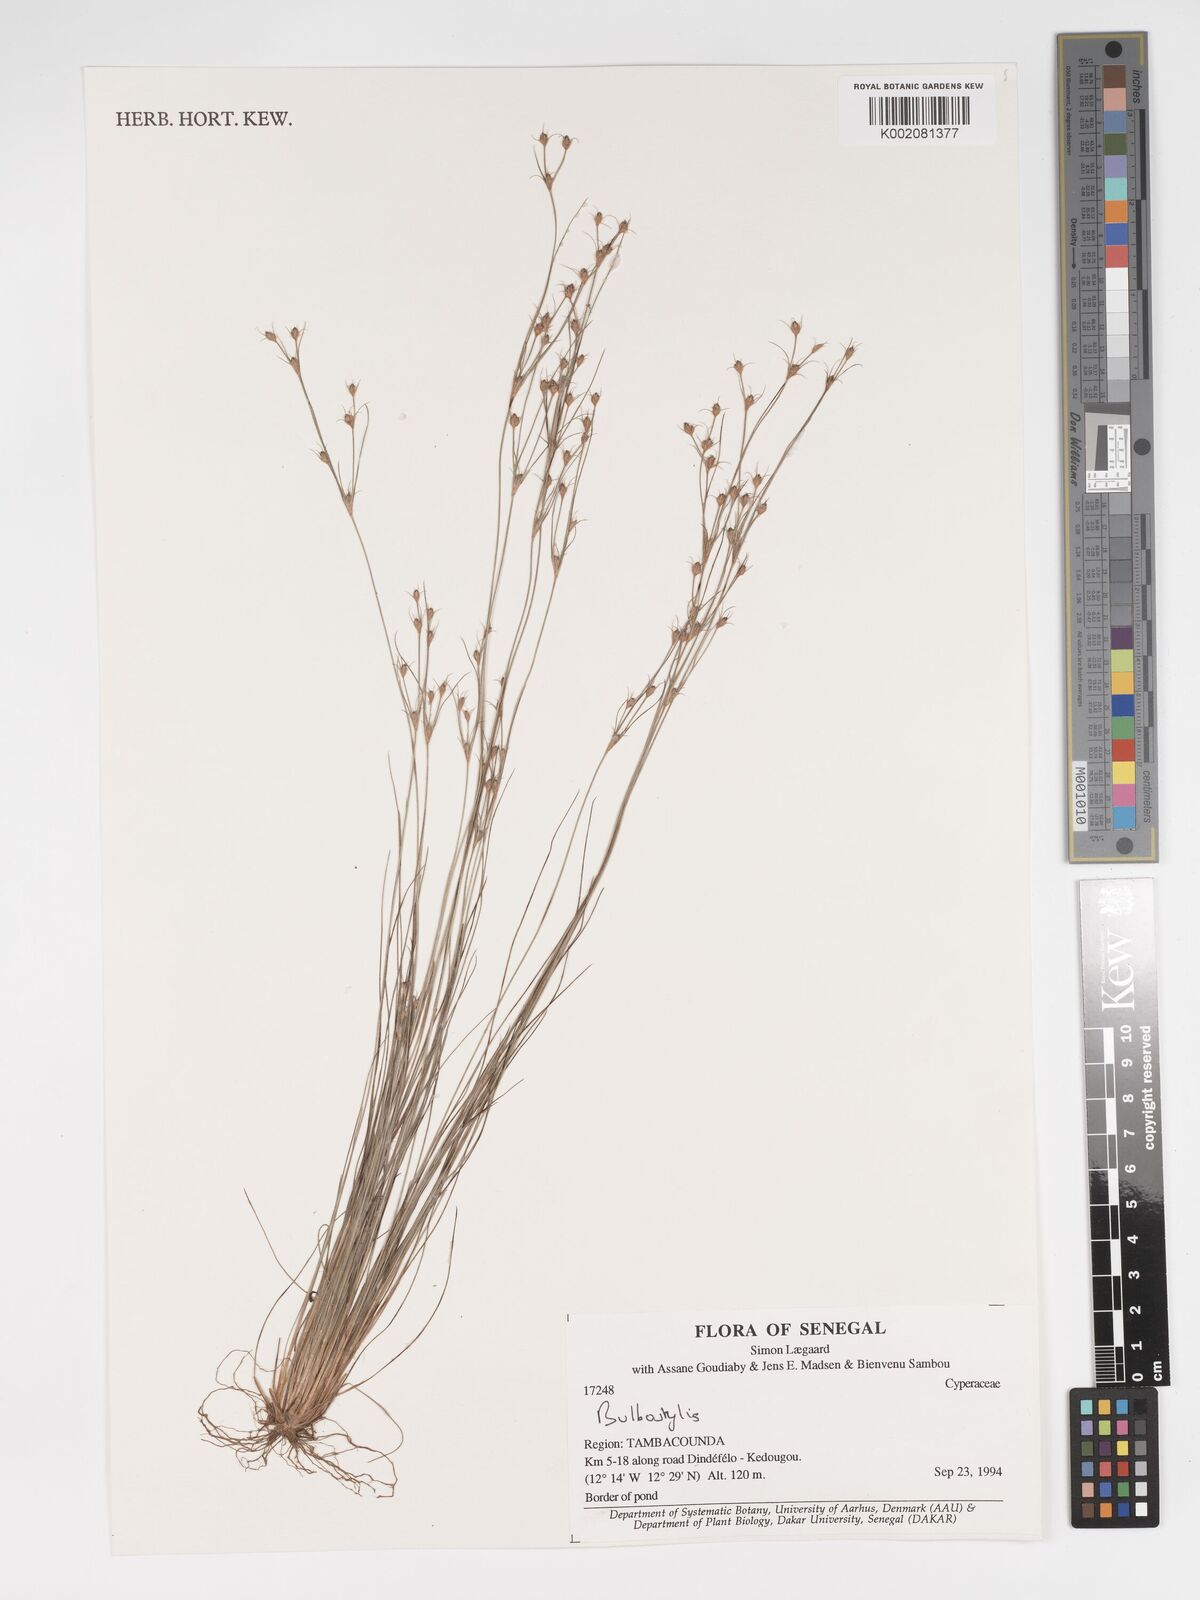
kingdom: Plantae
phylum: Tracheophyta
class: Liliopsida
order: Poales
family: Cyperaceae
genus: Bulbostylis
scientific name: Bulbostylis
